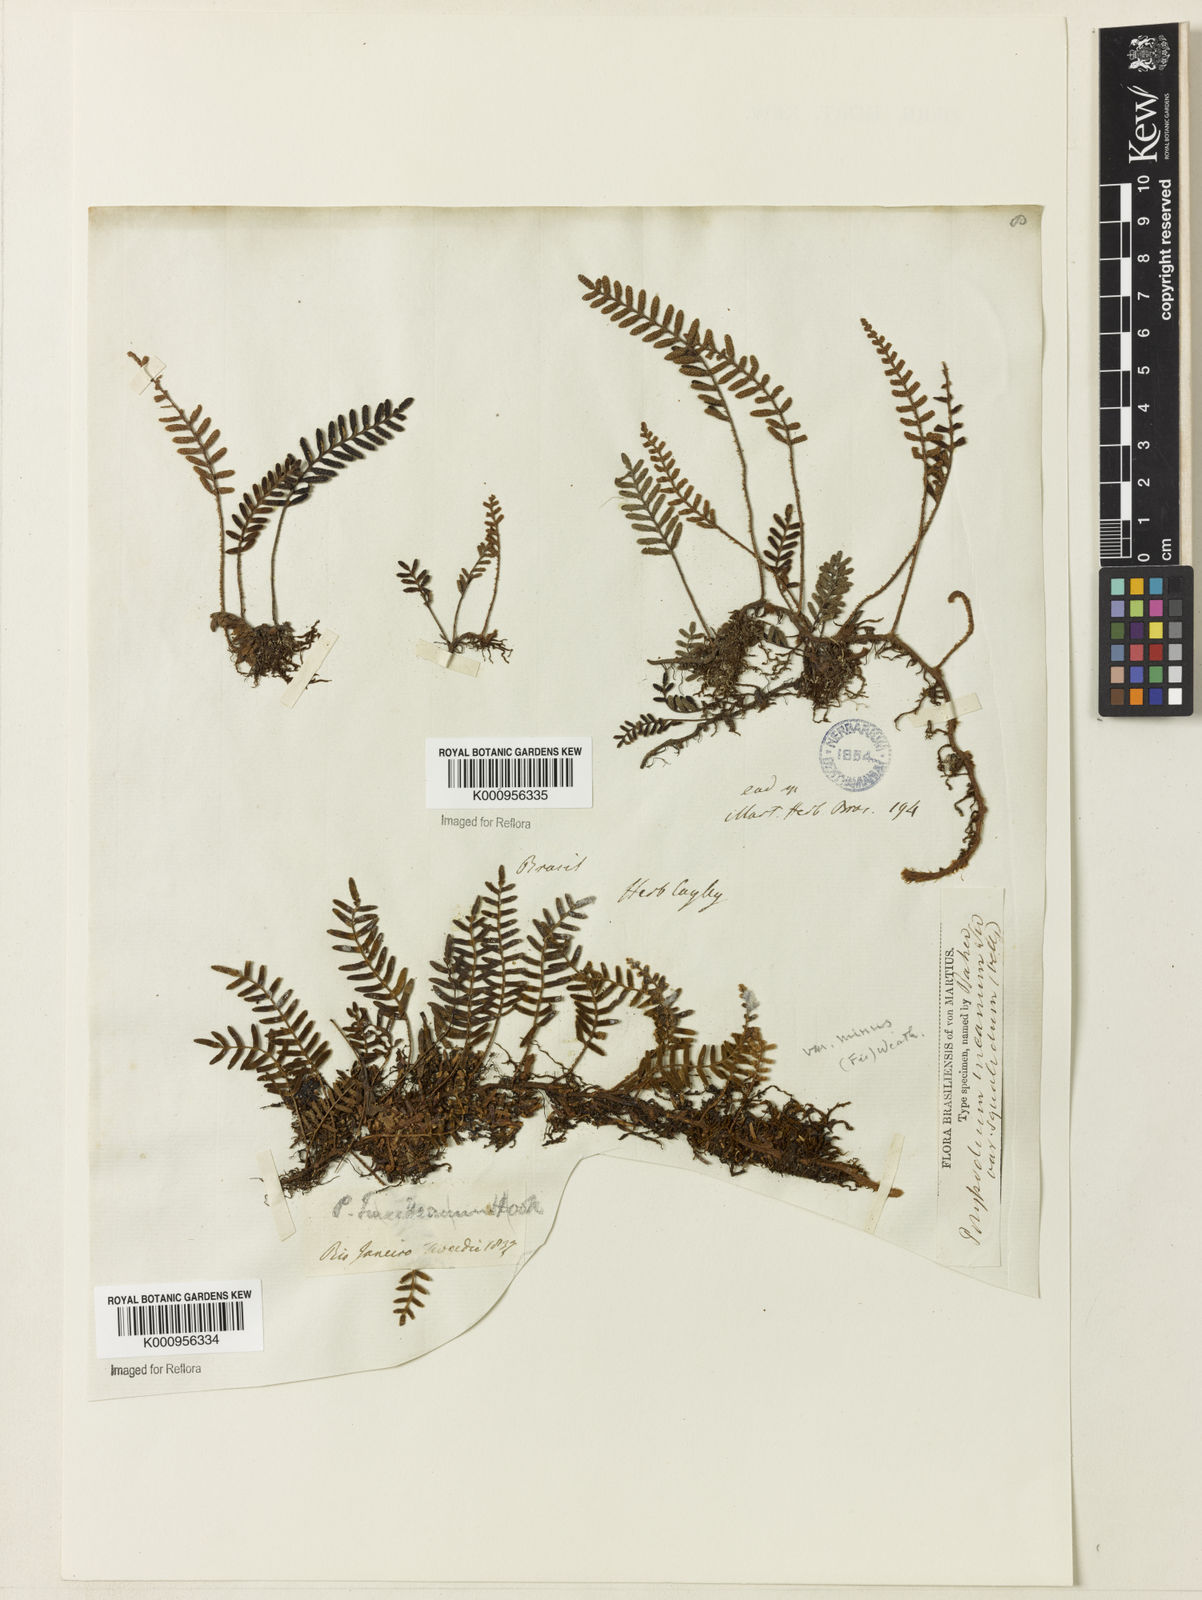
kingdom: Plantae
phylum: Tracheophyta
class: Polypodiopsida
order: Polypodiales
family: Polypodiaceae
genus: Pleopeltis
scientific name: Pleopeltis polypodioides
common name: Resurrection fern
